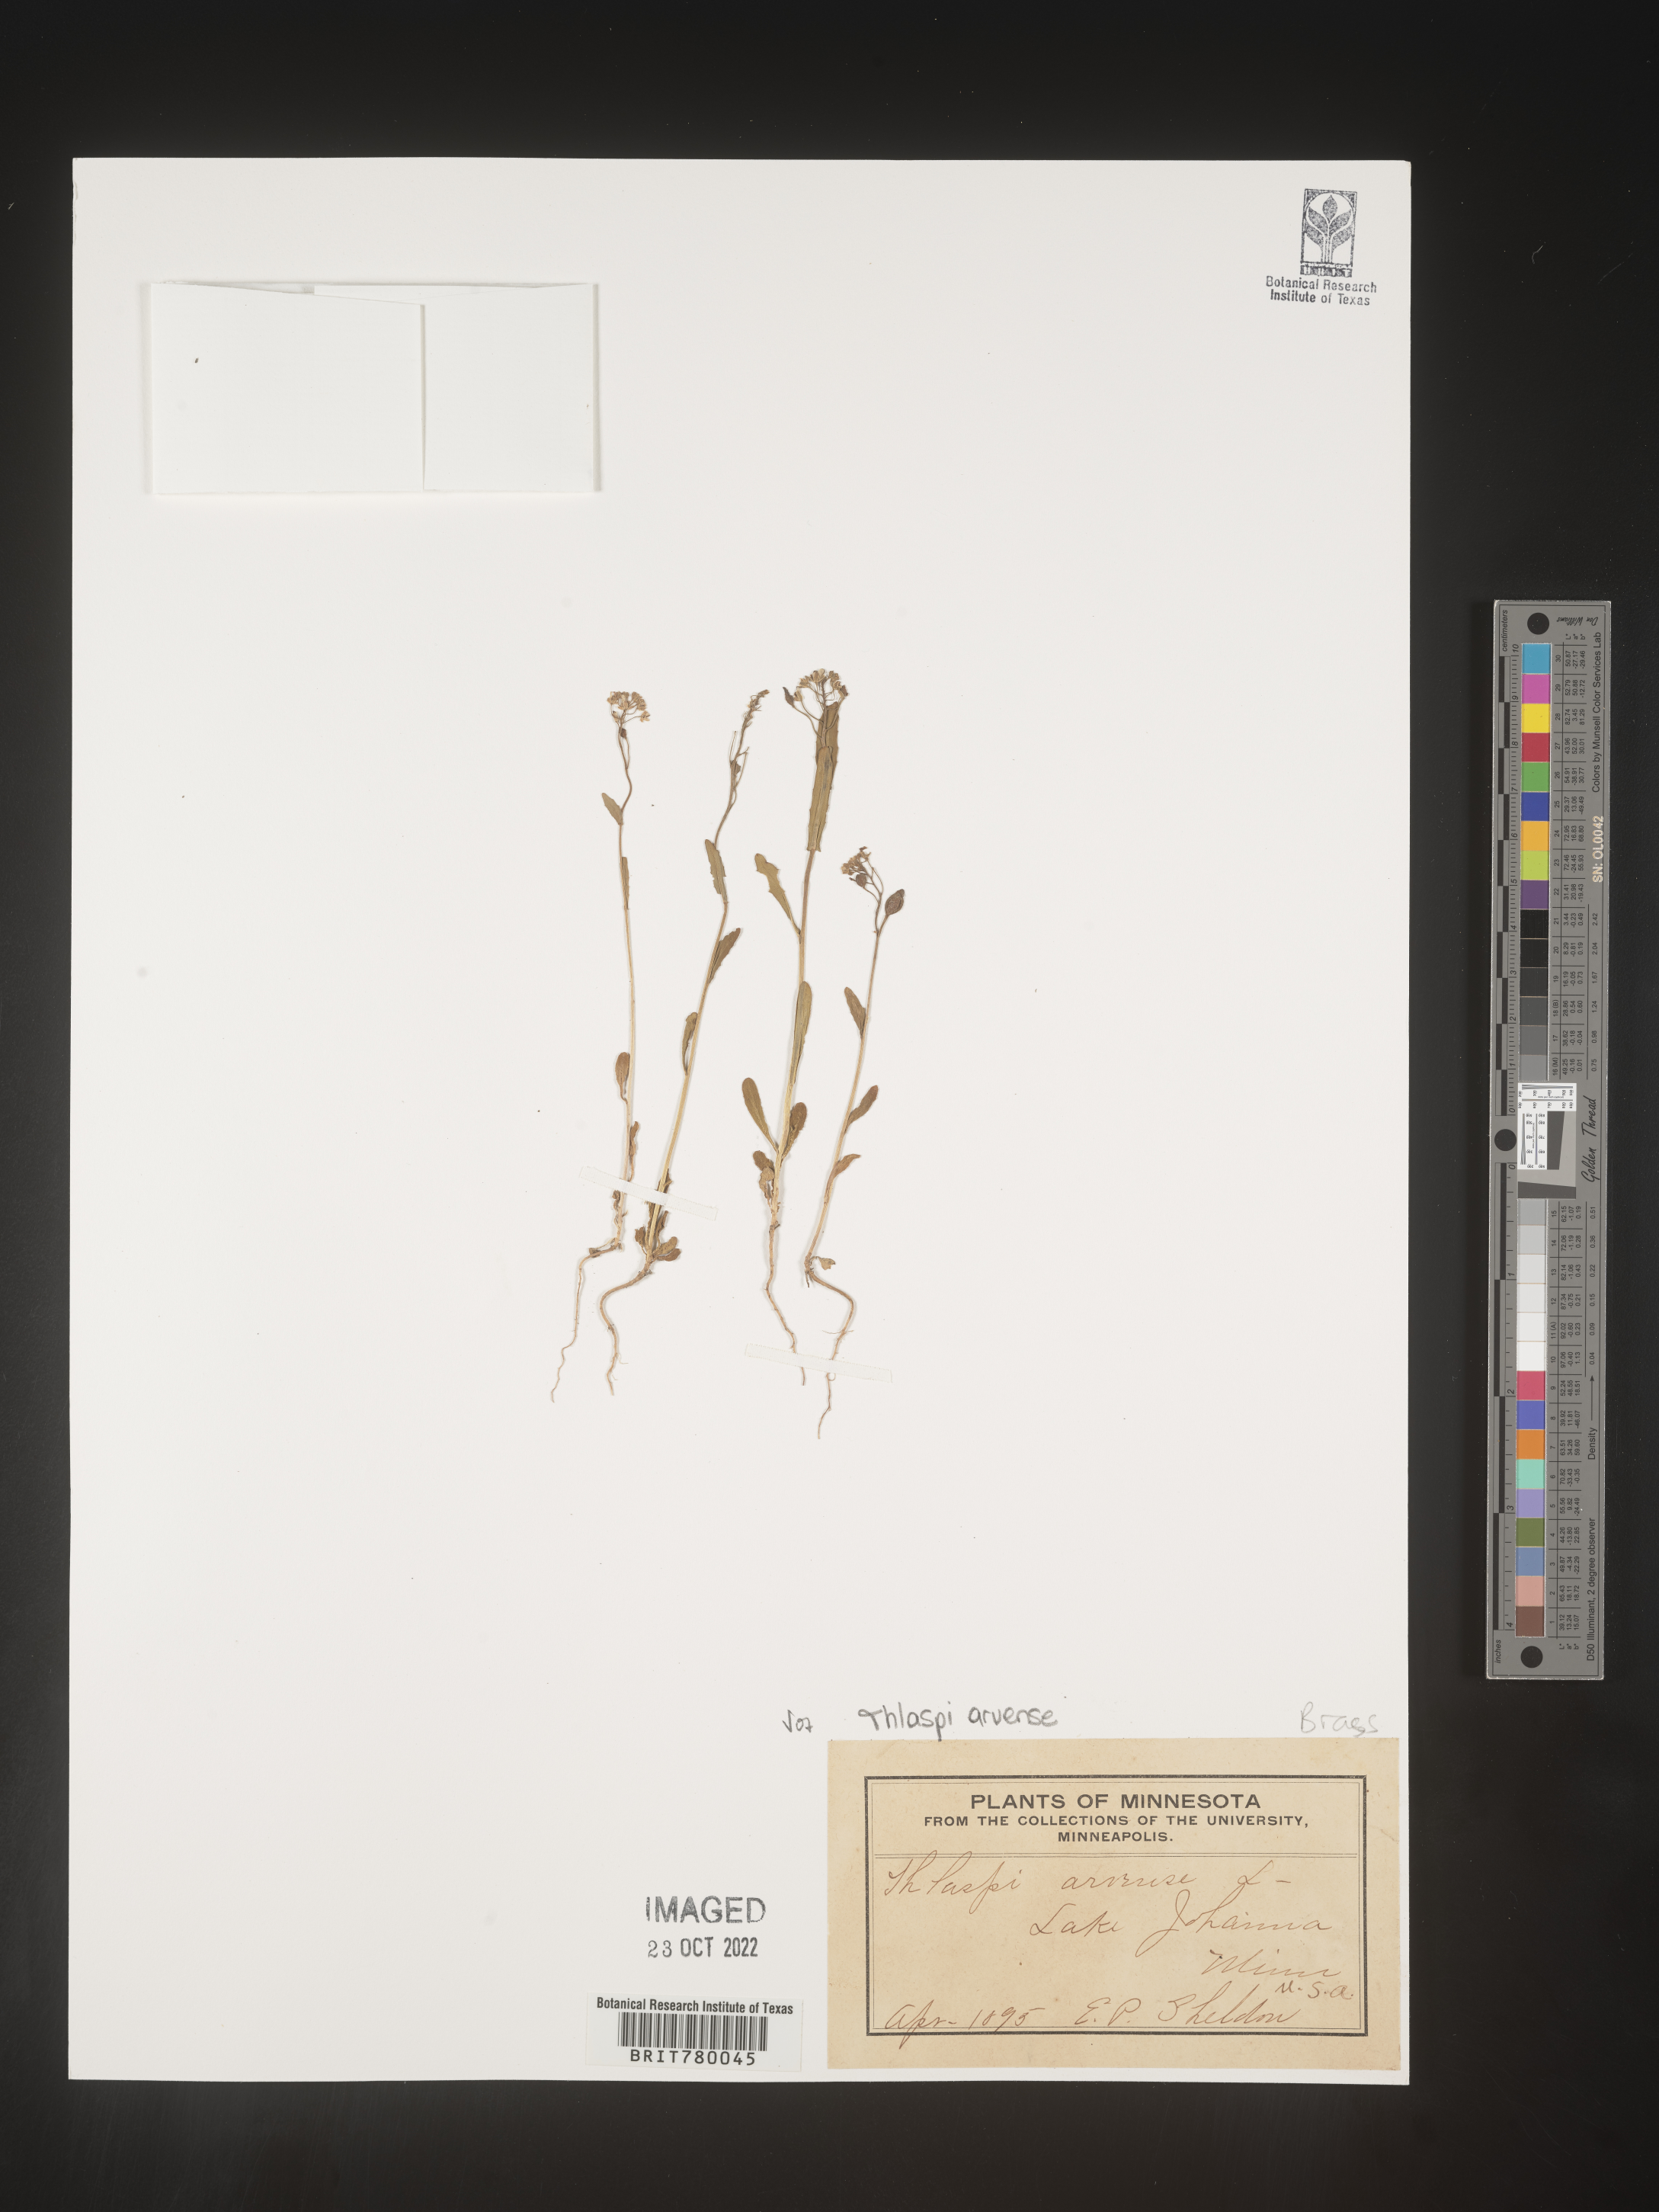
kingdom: Plantae
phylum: Tracheophyta
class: Magnoliopsida
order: Brassicales
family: Brassicaceae
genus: Thlaspi
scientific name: Thlaspi arvense
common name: Field pennycress
